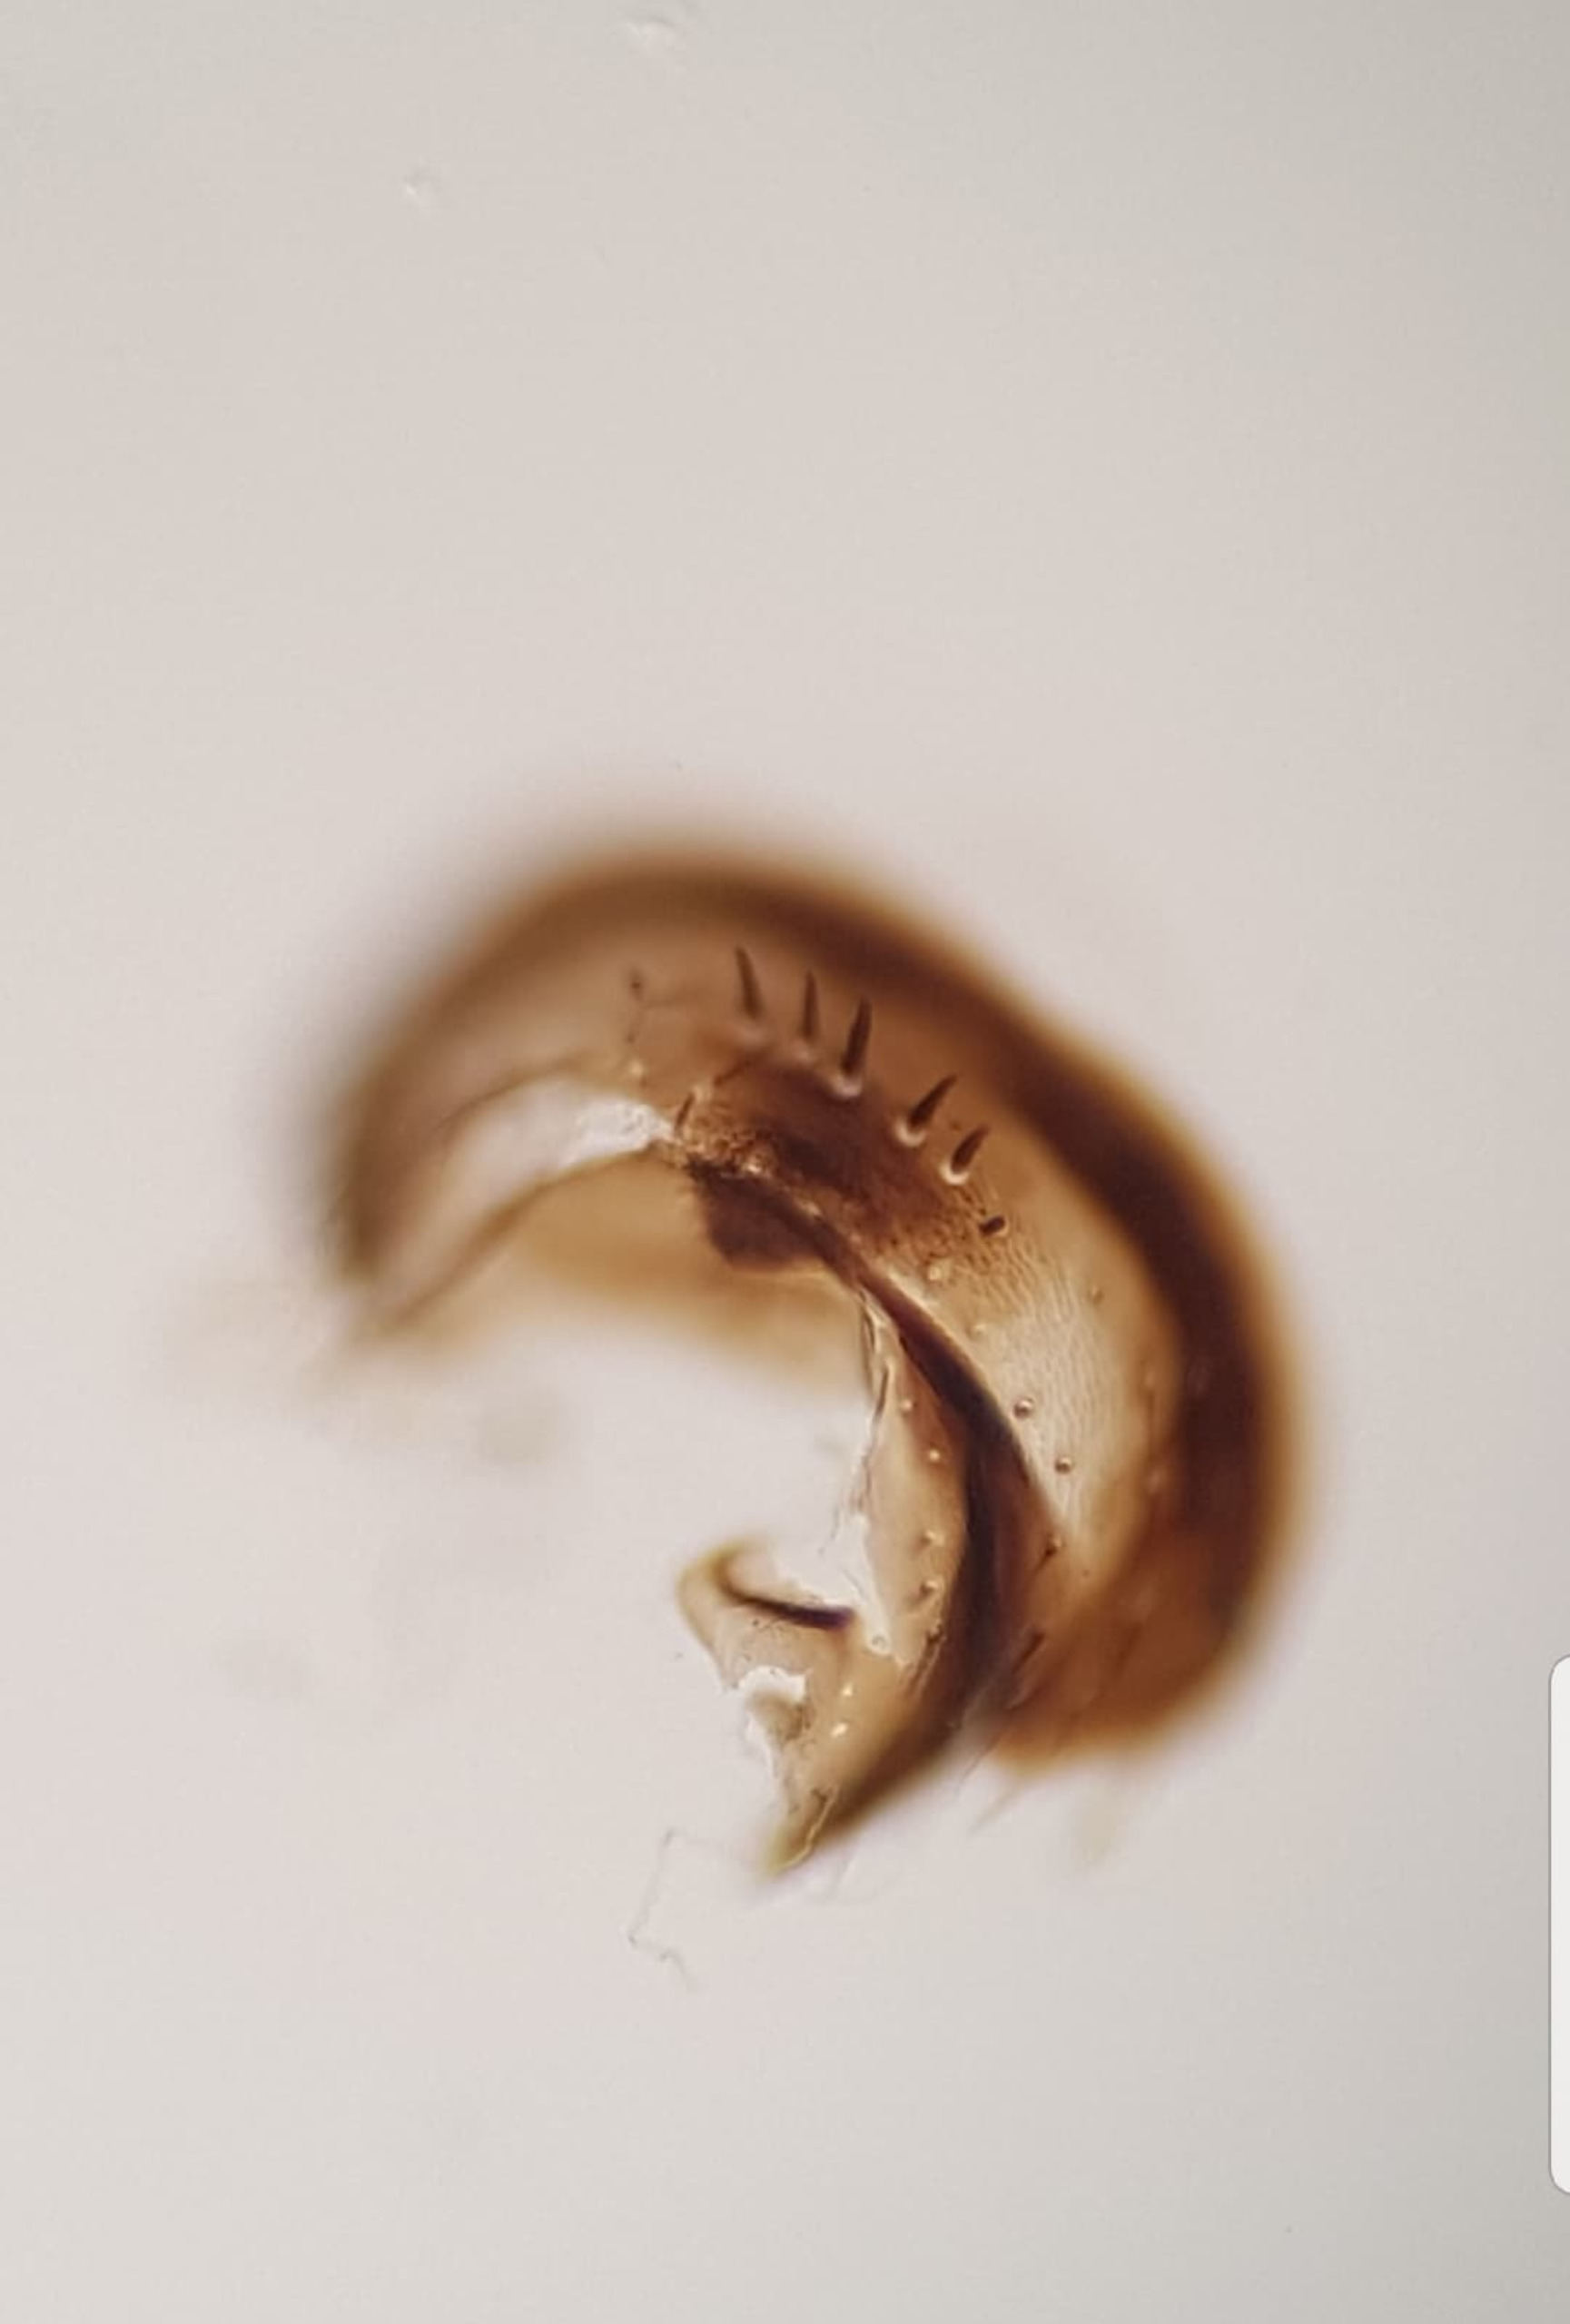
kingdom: Animalia
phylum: Arthropoda
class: Insecta
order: Diptera
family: Sphaeroceridae
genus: Thoracochaeta
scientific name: Thoracochaeta johnsoni
